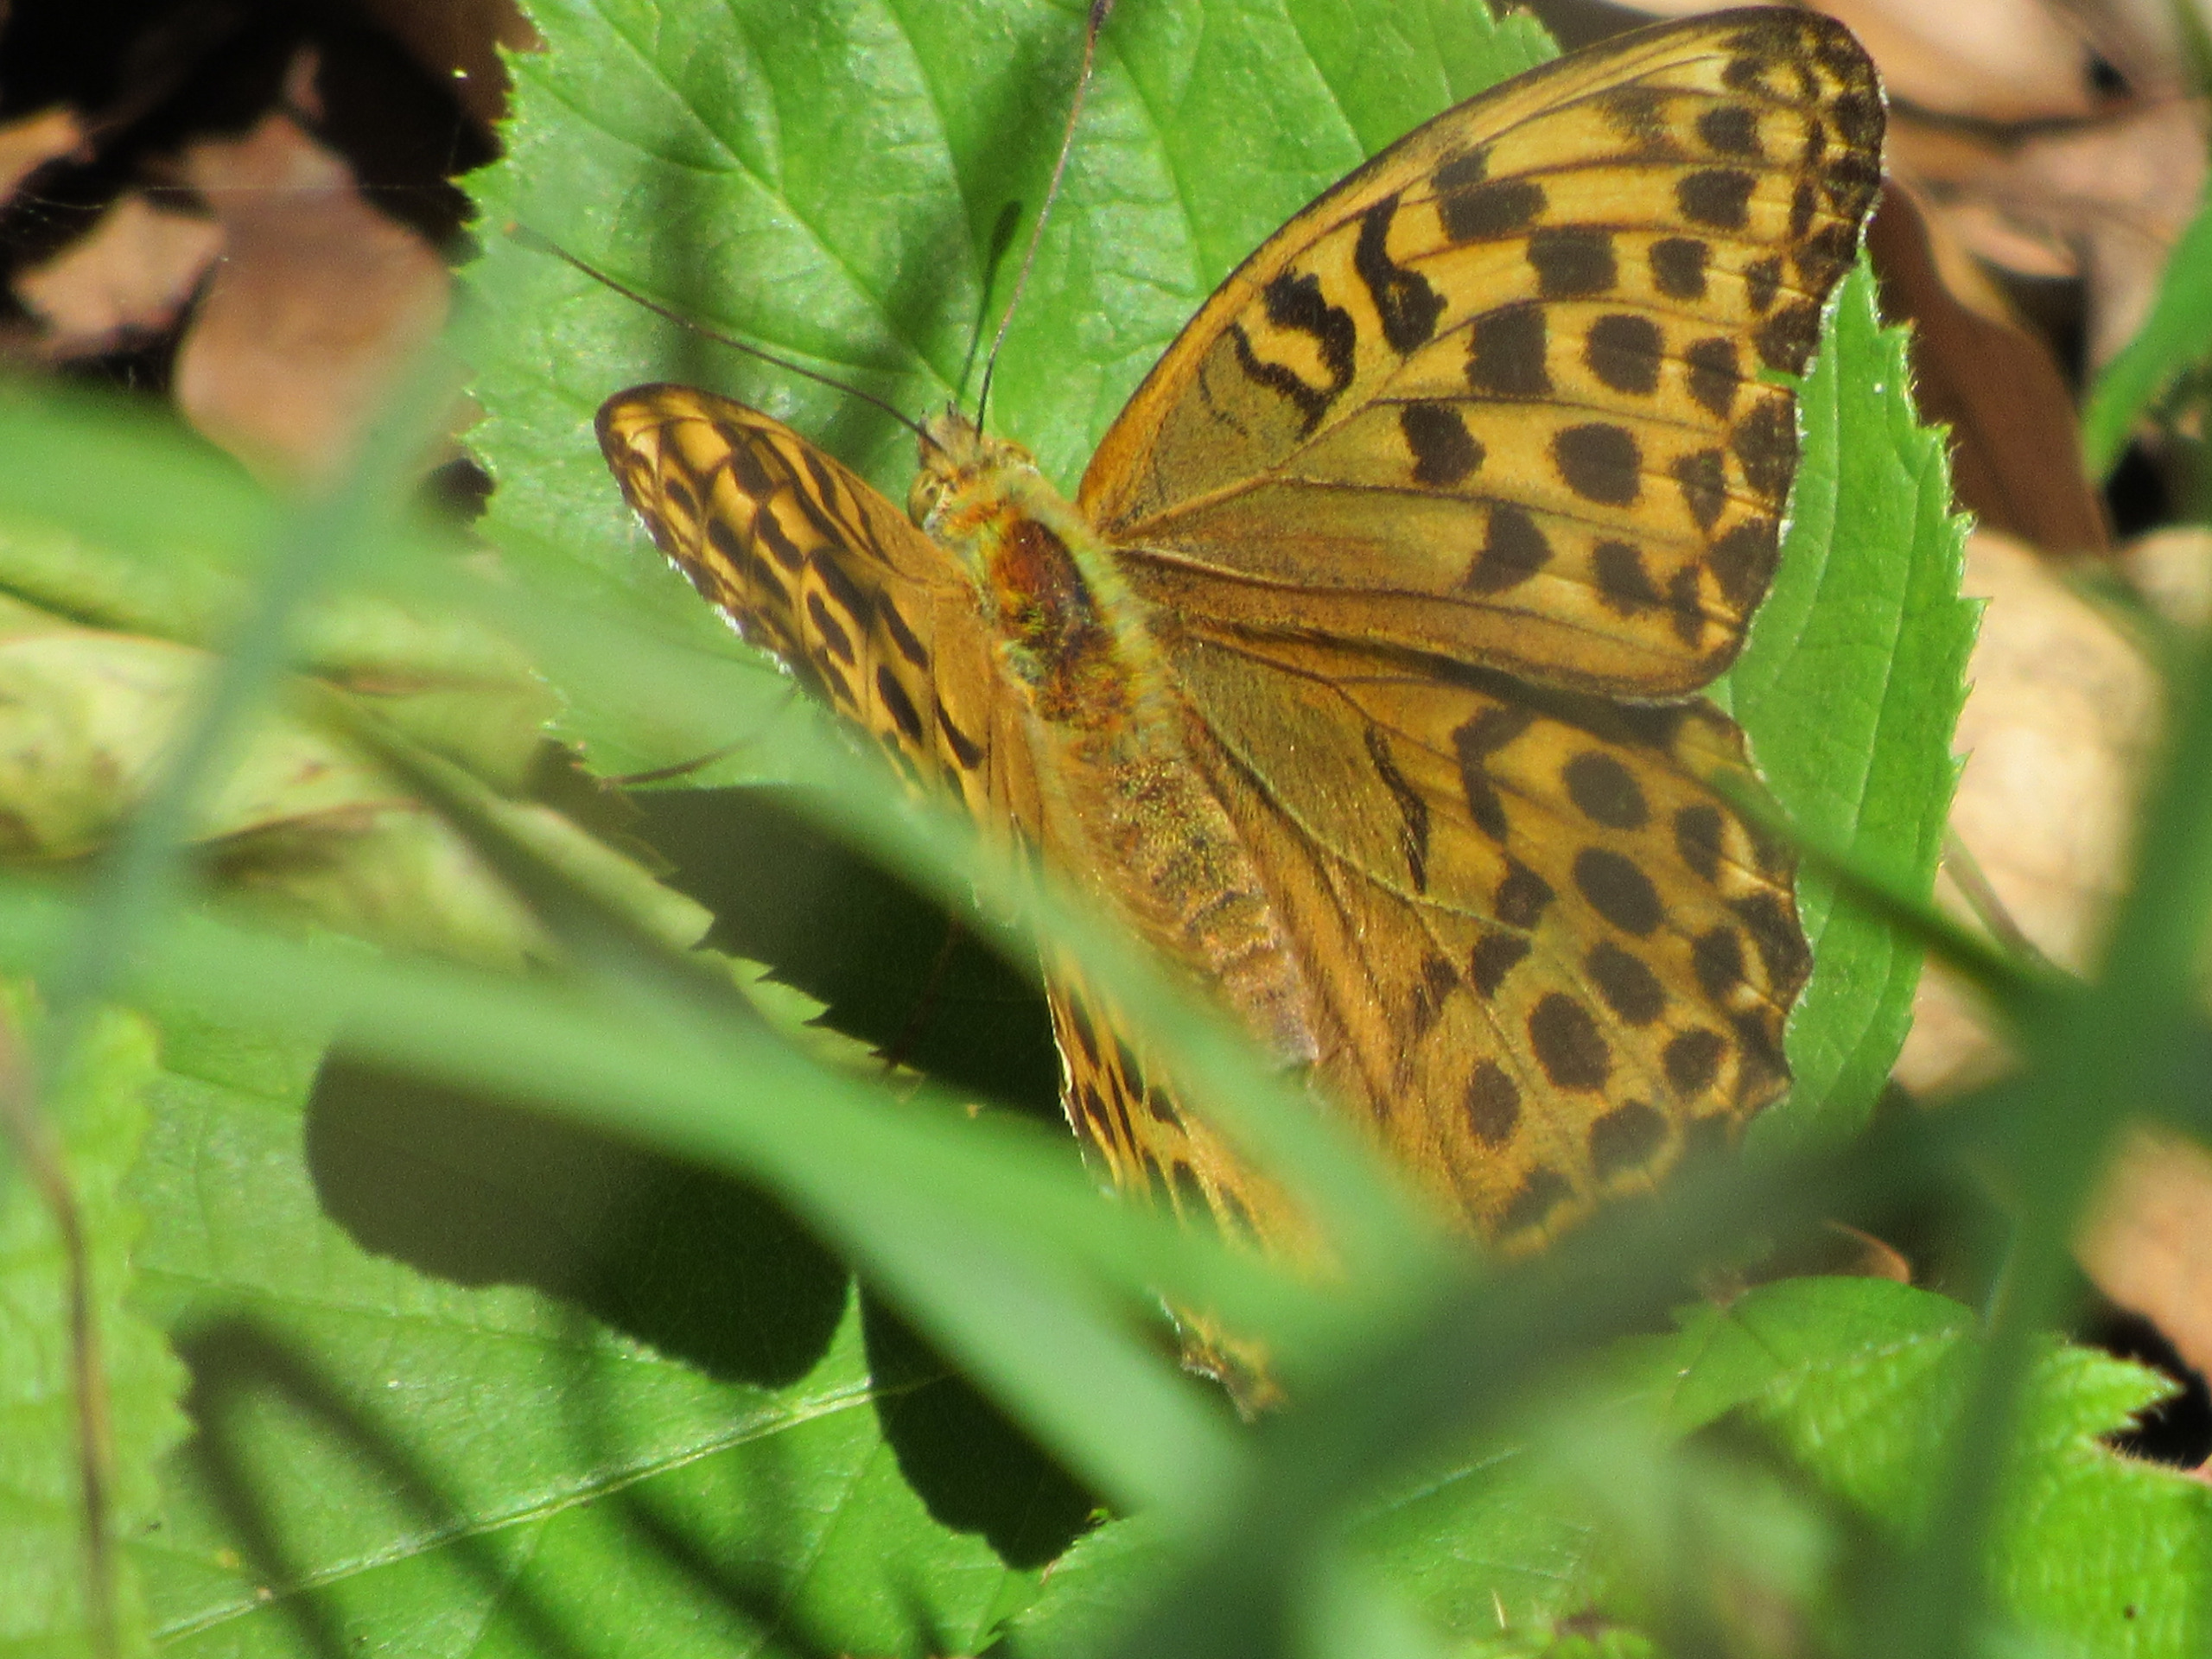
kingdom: Animalia
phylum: Arthropoda
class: Insecta
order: Lepidoptera
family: Nymphalidae
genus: Argynnis
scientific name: Argynnis paphia
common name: Kejserkåbe
